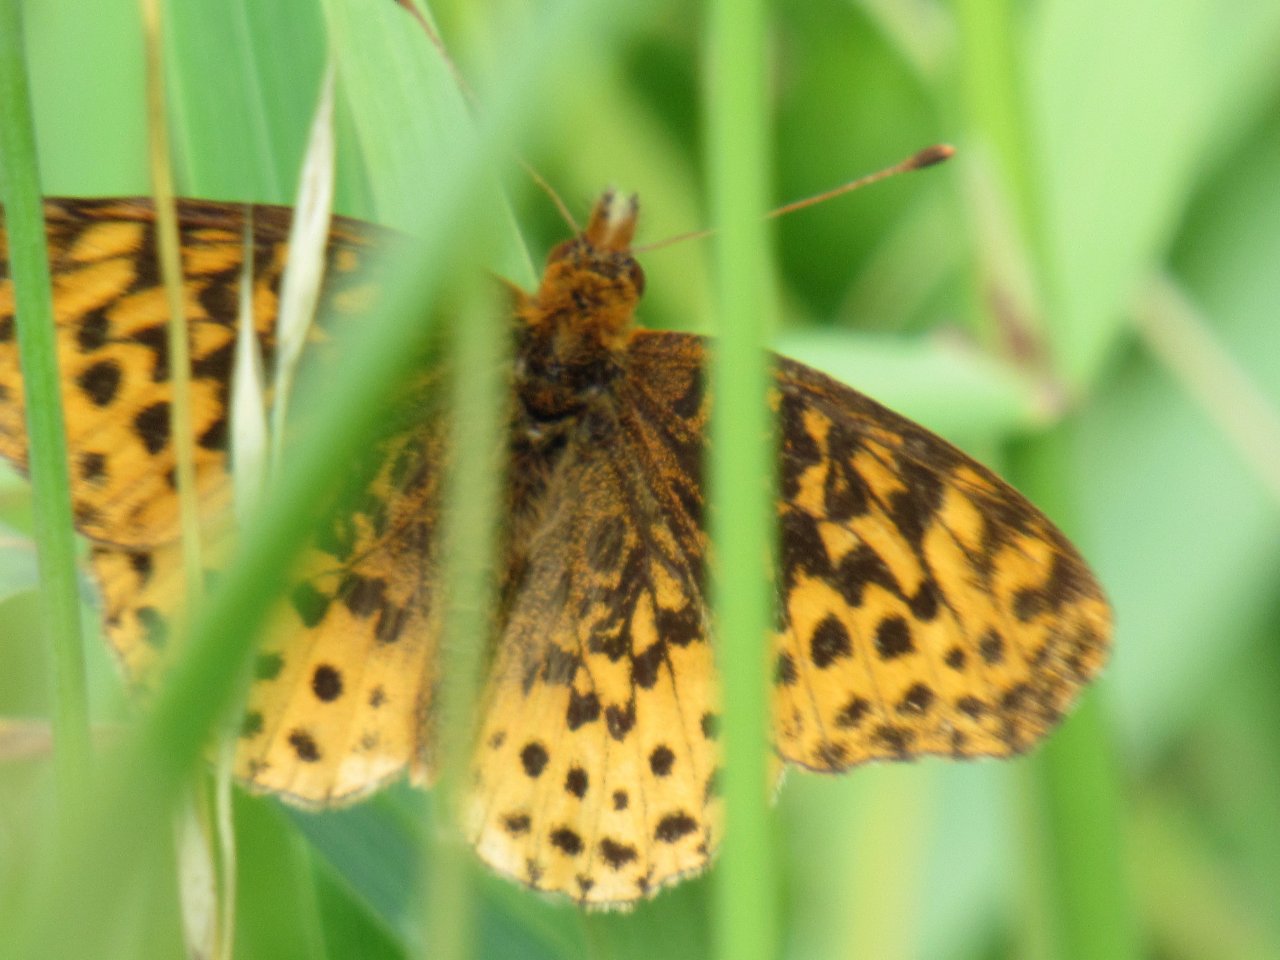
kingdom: Animalia
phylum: Arthropoda
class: Insecta
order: Lepidoptera
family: Nymphalidae
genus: Clossiana
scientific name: Clossiana toddi
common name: Meadow Fritillary
